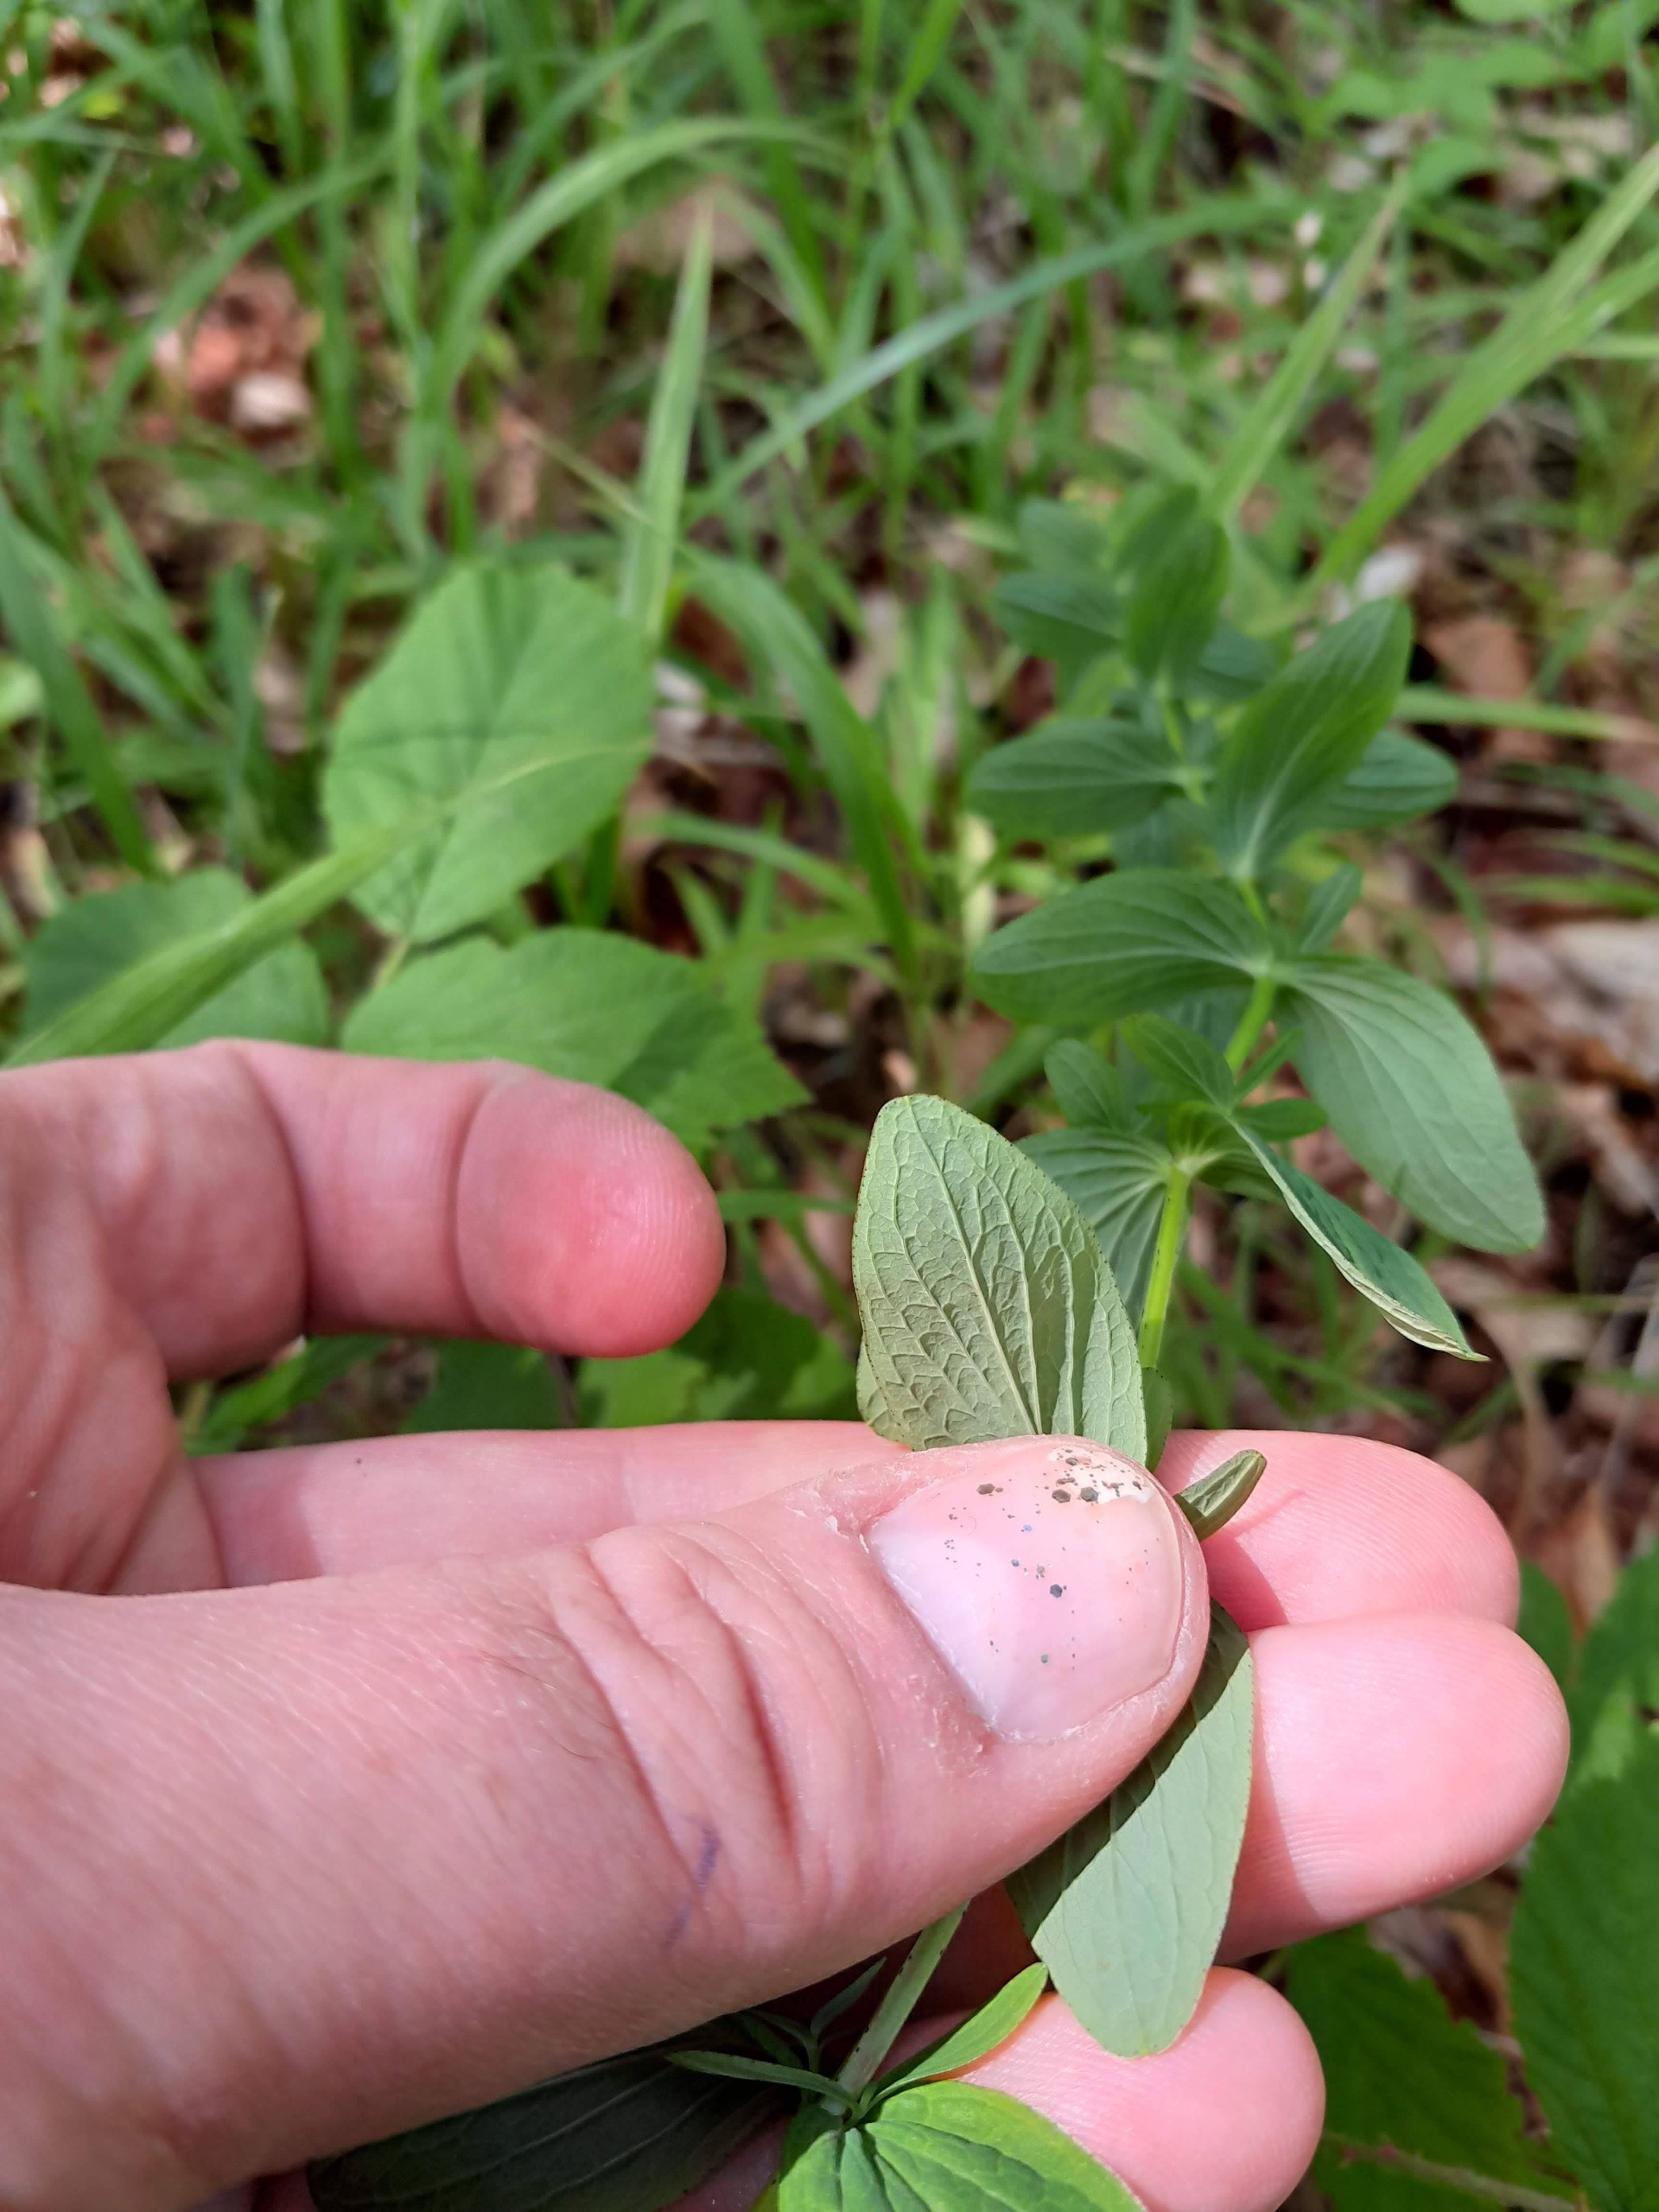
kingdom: Plantae
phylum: Tracheophyta
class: Magnoliopsida
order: Malpighiales
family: Hypericaceae
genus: Hypericum
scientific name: Hypericum maculatum
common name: Kantet perikon
